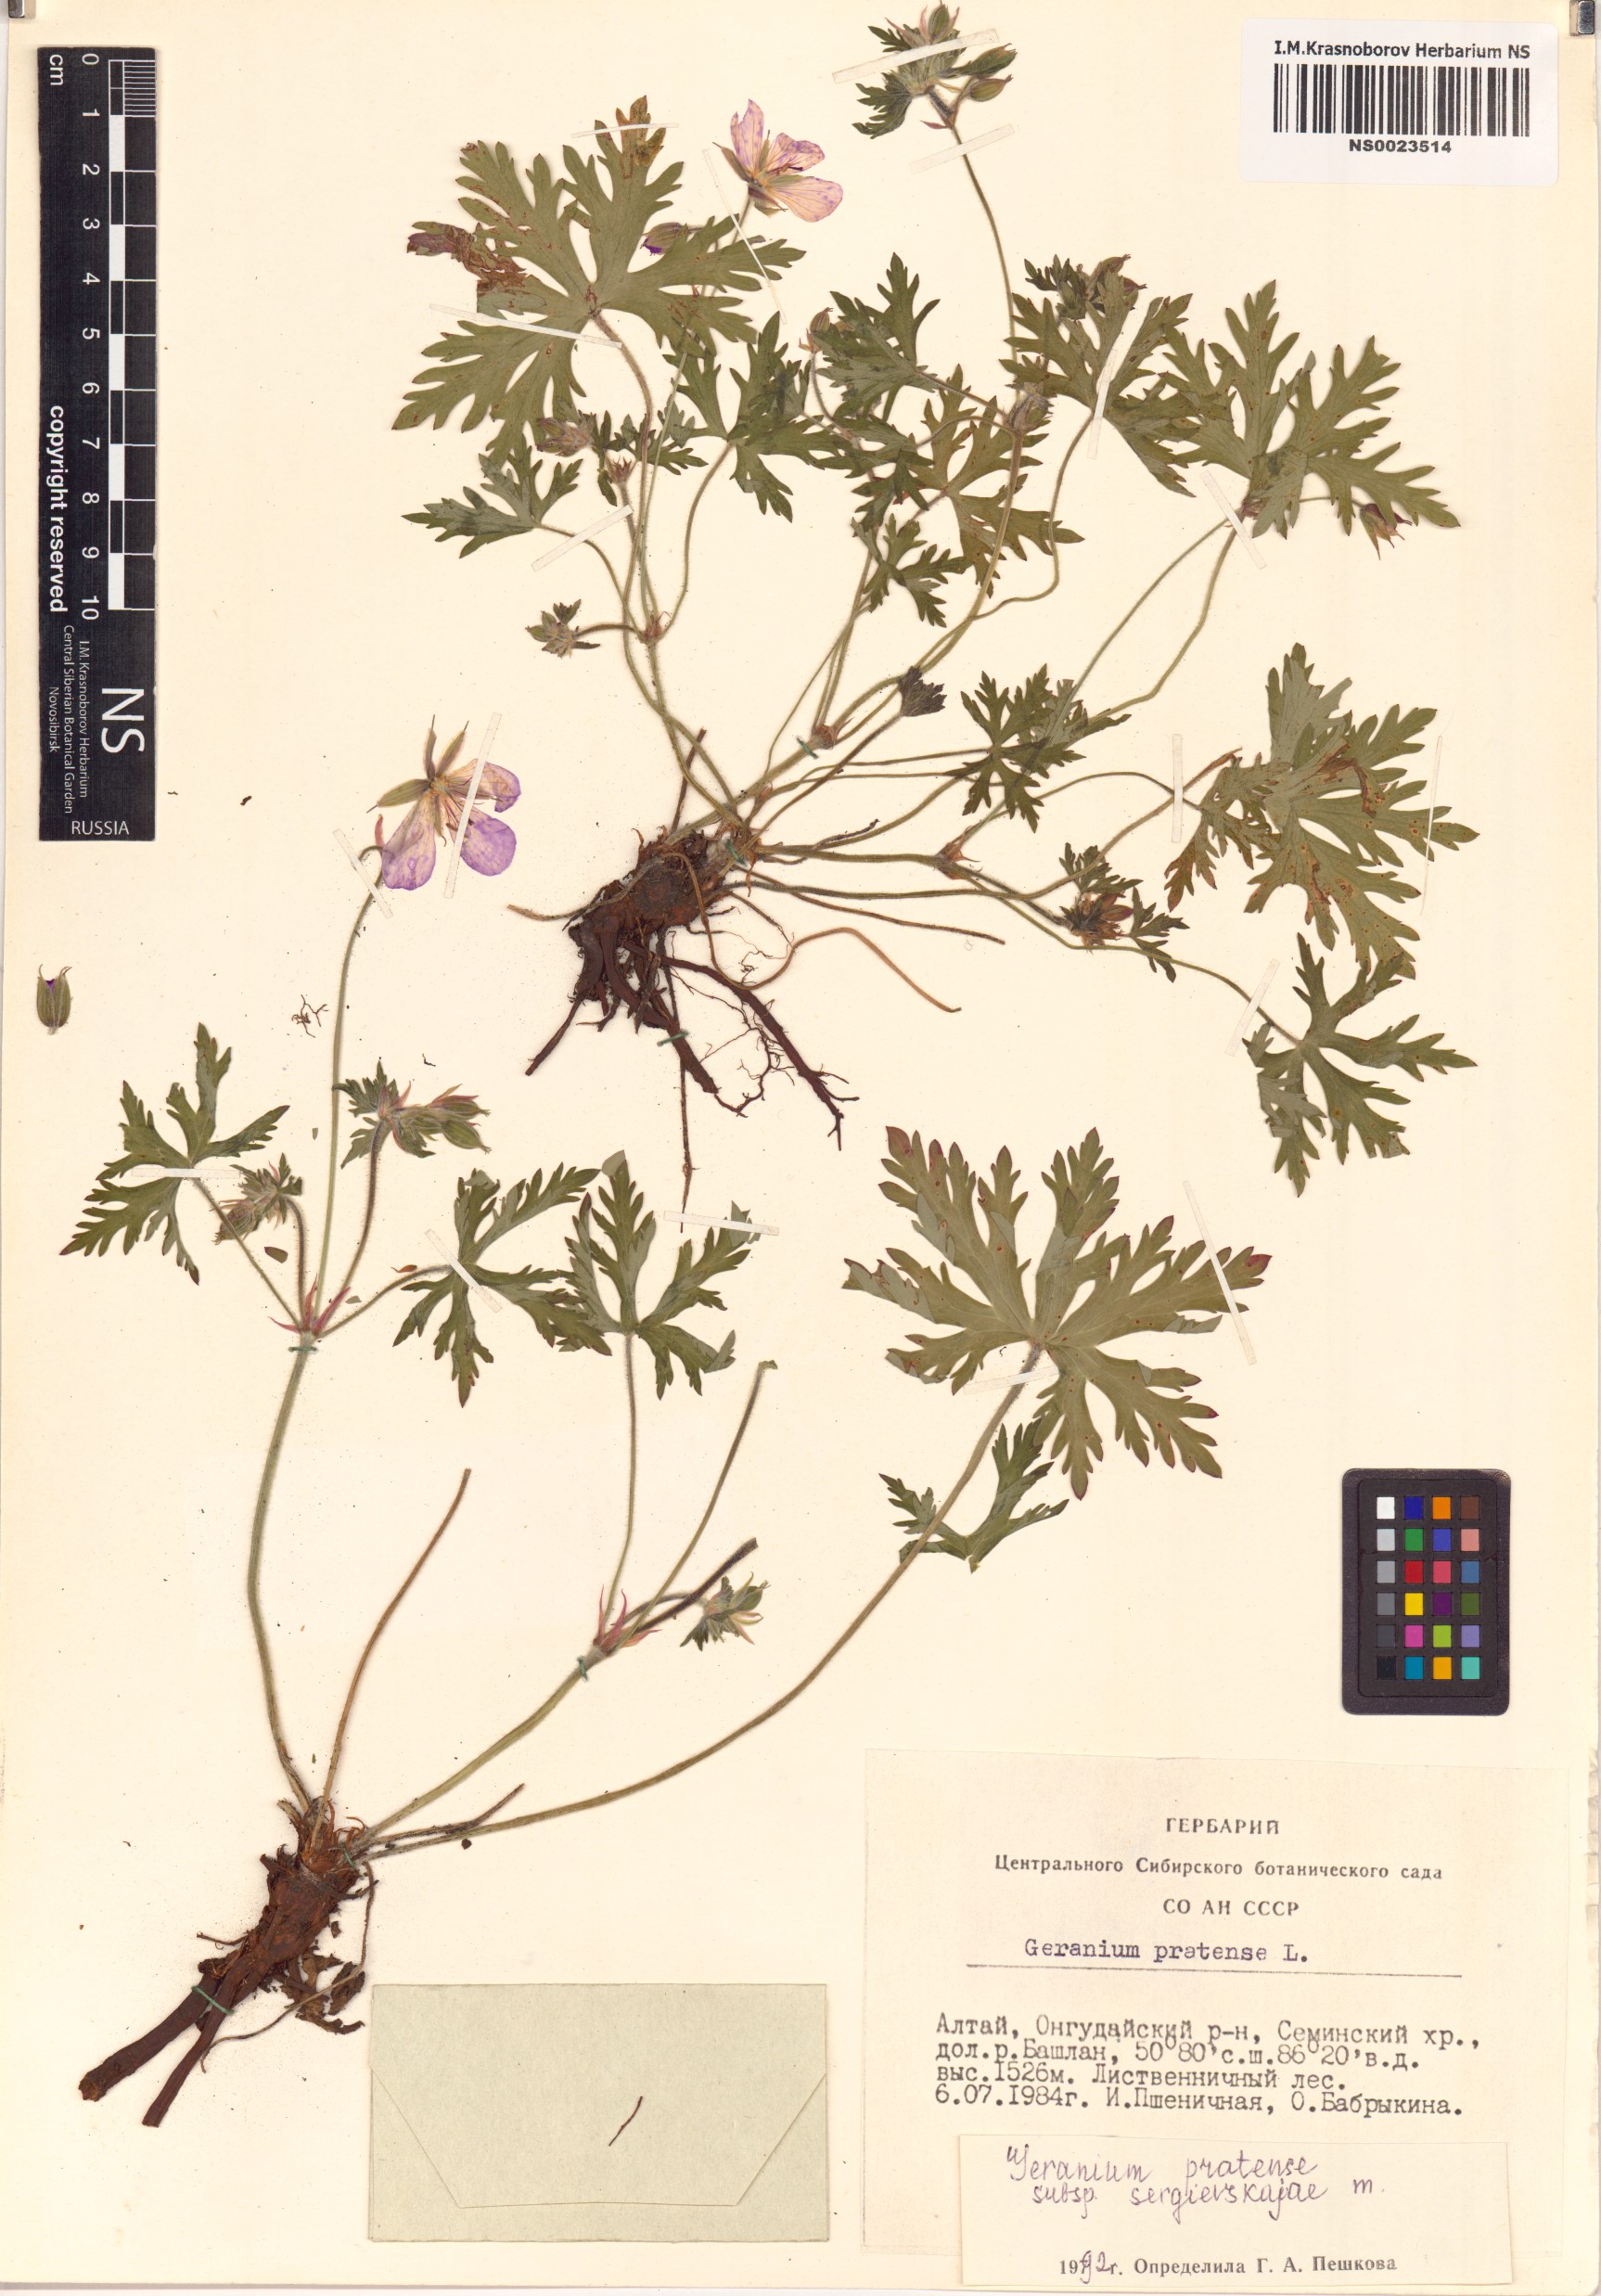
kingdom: Plantae
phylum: Tracheophyta
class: Magnoliopsida
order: Geraniales
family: Geraniaceae
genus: Geranium
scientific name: Geranium pratense
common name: Meadow crane's-bill
